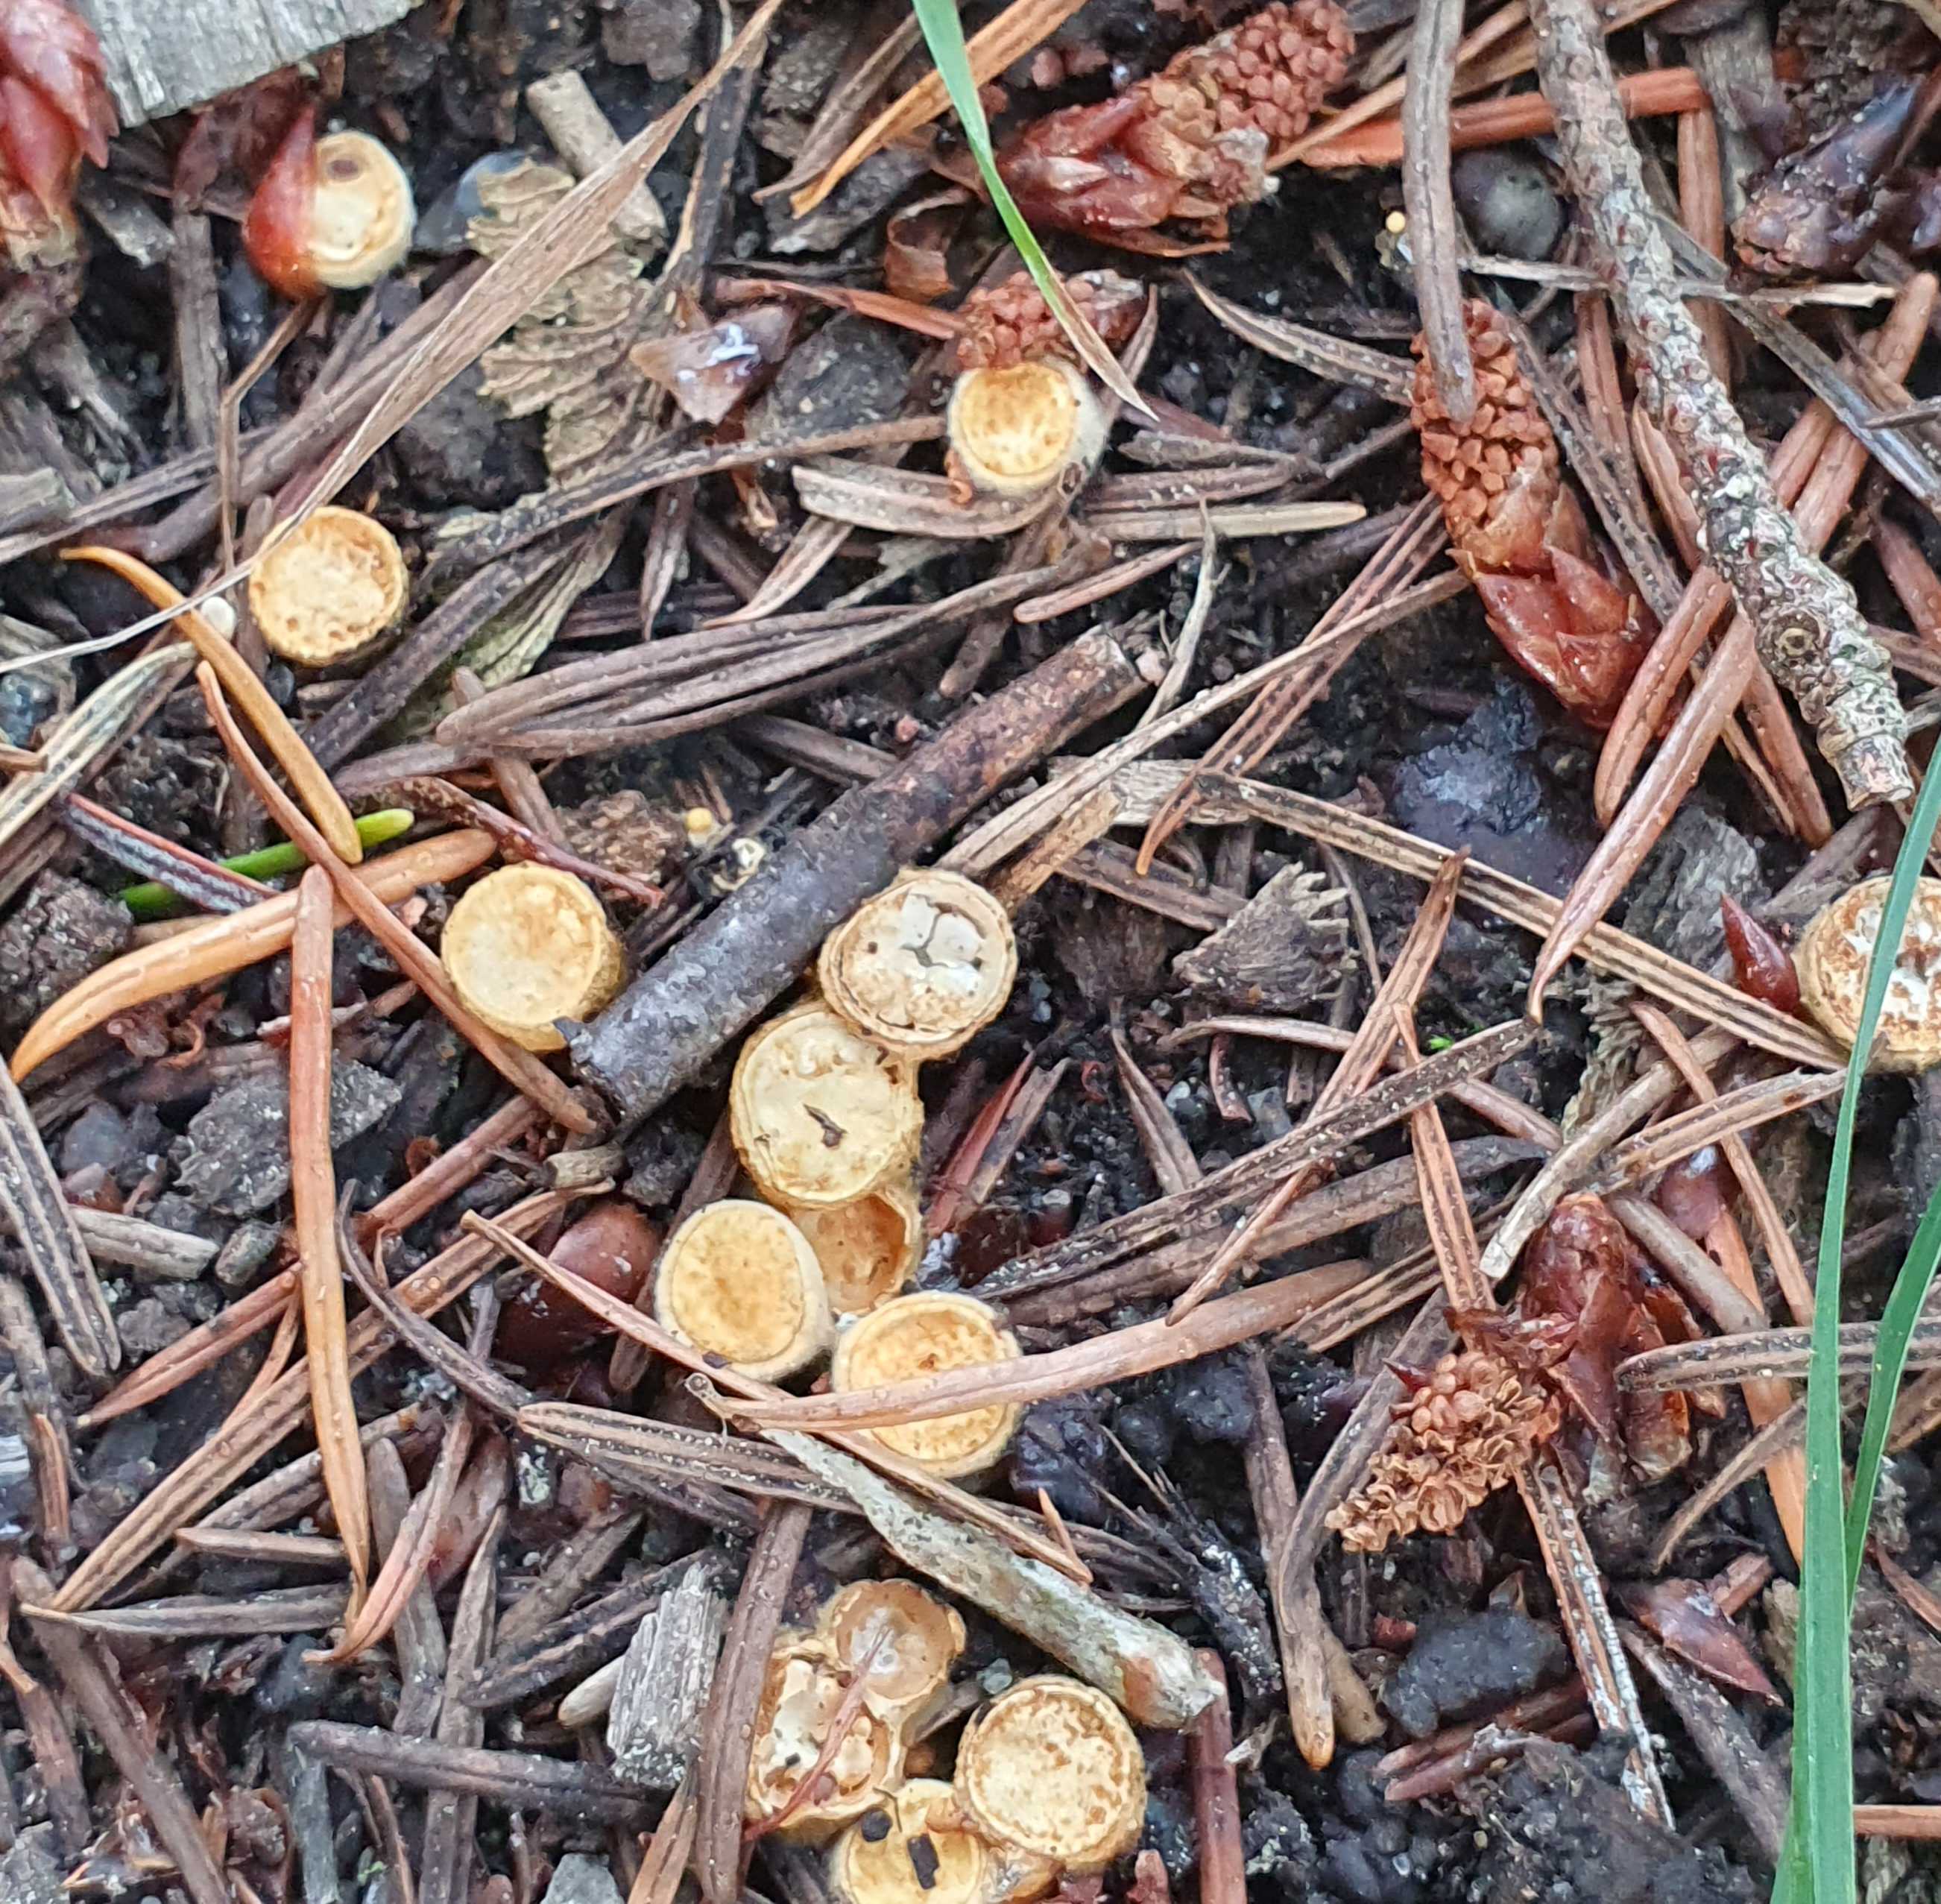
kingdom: Fungi
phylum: Basidiomycota
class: Agaricomycetes
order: Agaricales
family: Nidulariaceae
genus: Crucibulum
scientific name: Crucibulum crucibuliforme
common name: krukkesvamp
